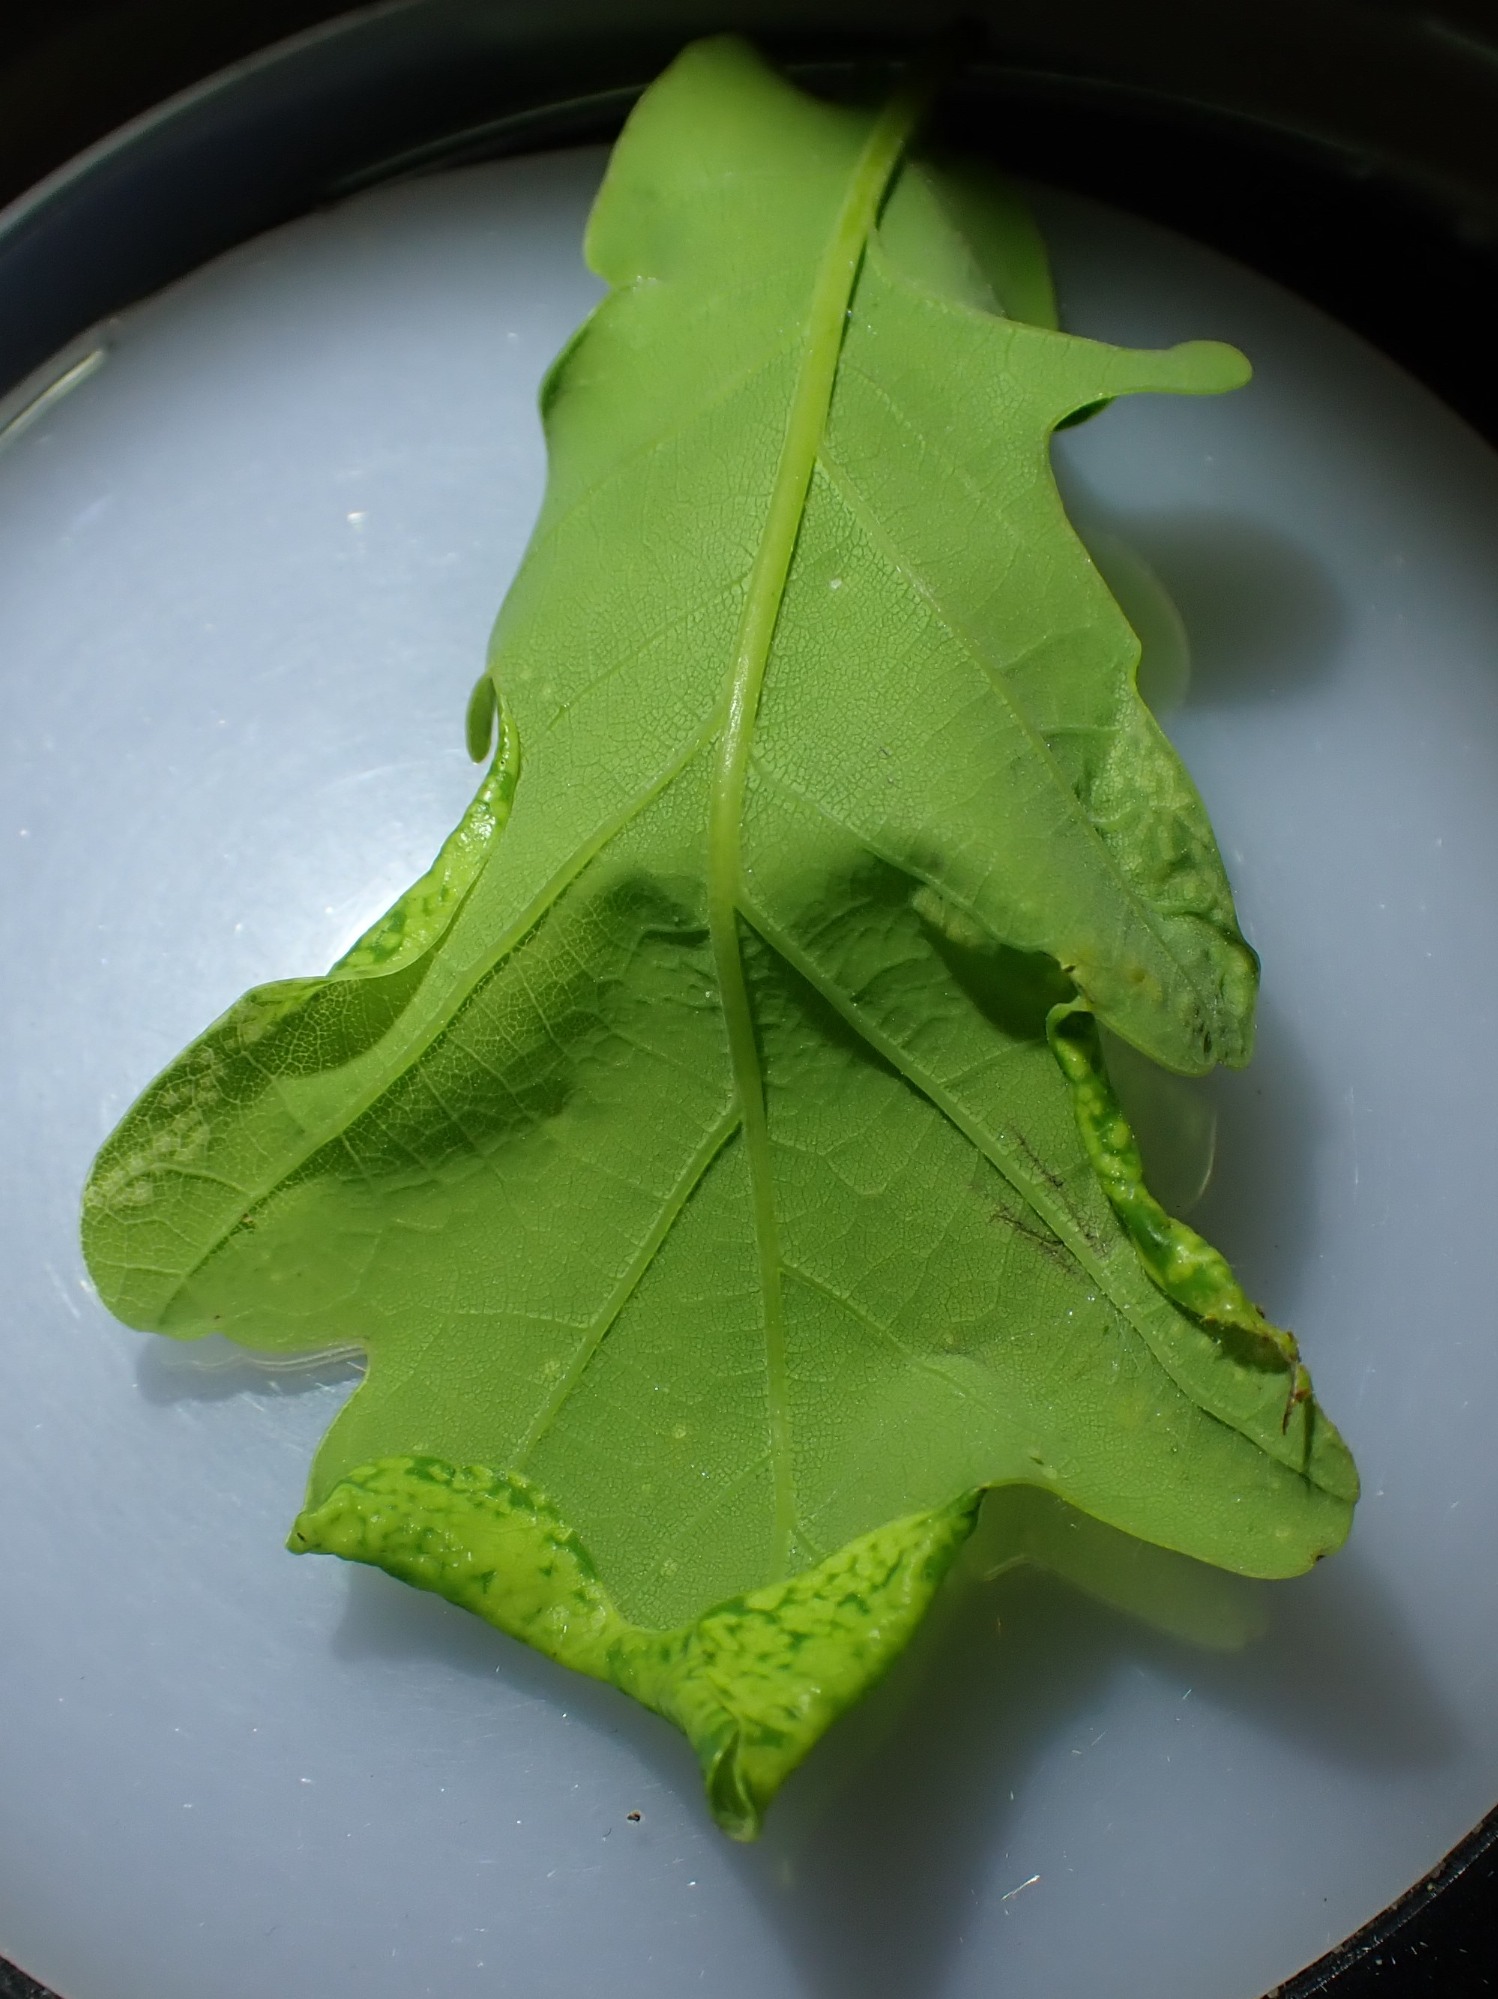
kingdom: Animalia
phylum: Arthropoda
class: Insecta
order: Diptera
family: Cecidomyiidae
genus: Macrodiplosis
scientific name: Macrodiplosis pustularis
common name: Marmorgalmyg
